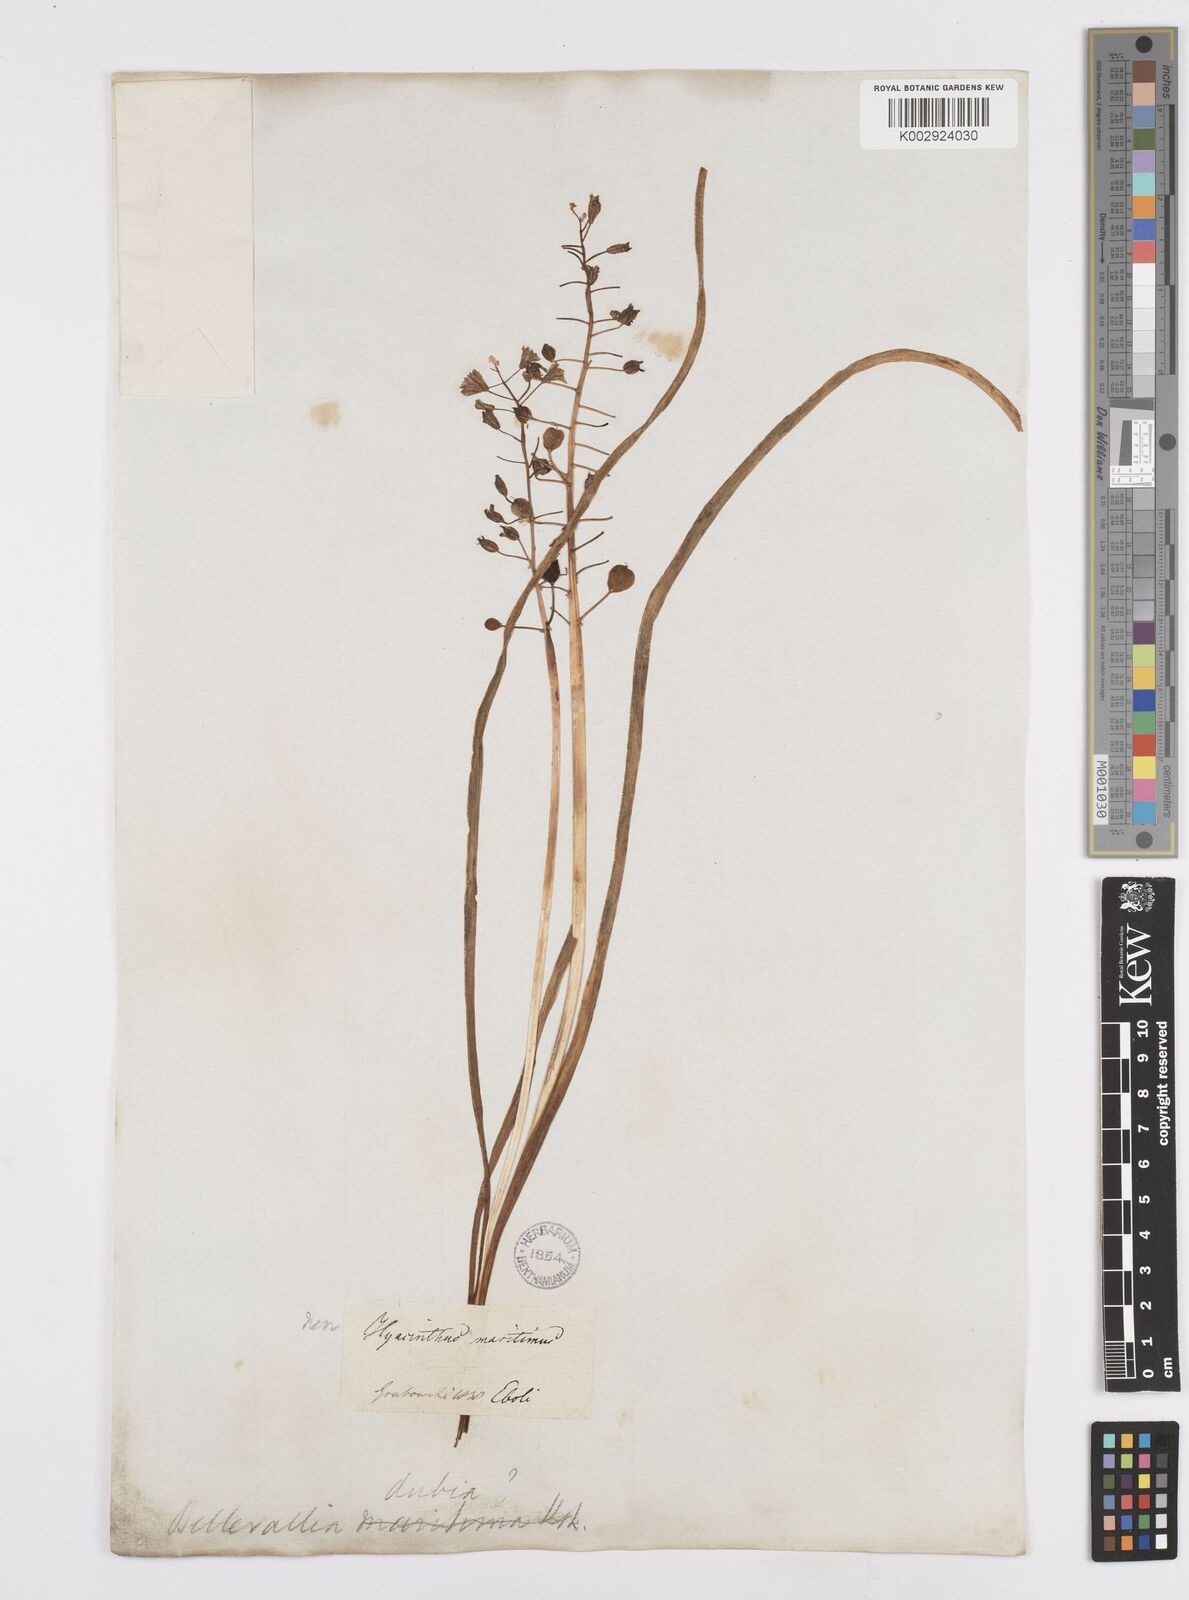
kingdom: Plantae
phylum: Tracheophyta
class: Liliopsida
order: Asparagales
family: Asparagaceae
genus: Bellevalia
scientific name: Bellevalia dubia
